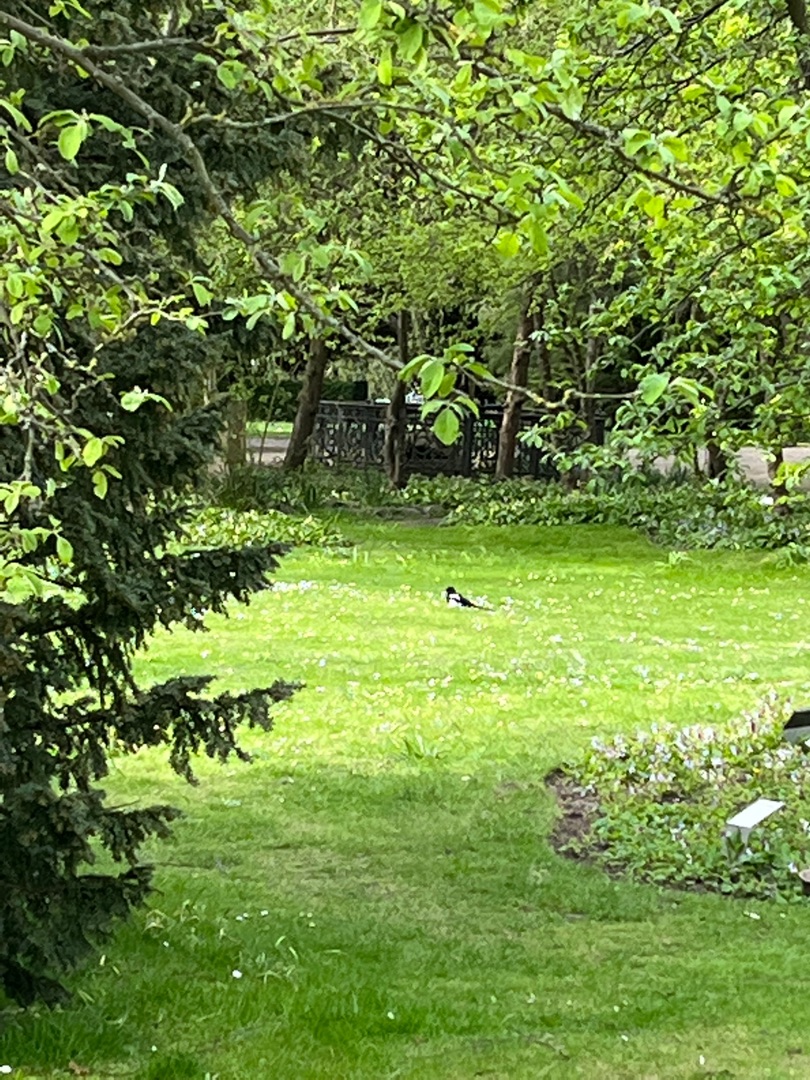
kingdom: Animalia
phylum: Chordata
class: Aves
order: Passeriformes
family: Corvidae
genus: Pica
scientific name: Pica pica
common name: Husskade
